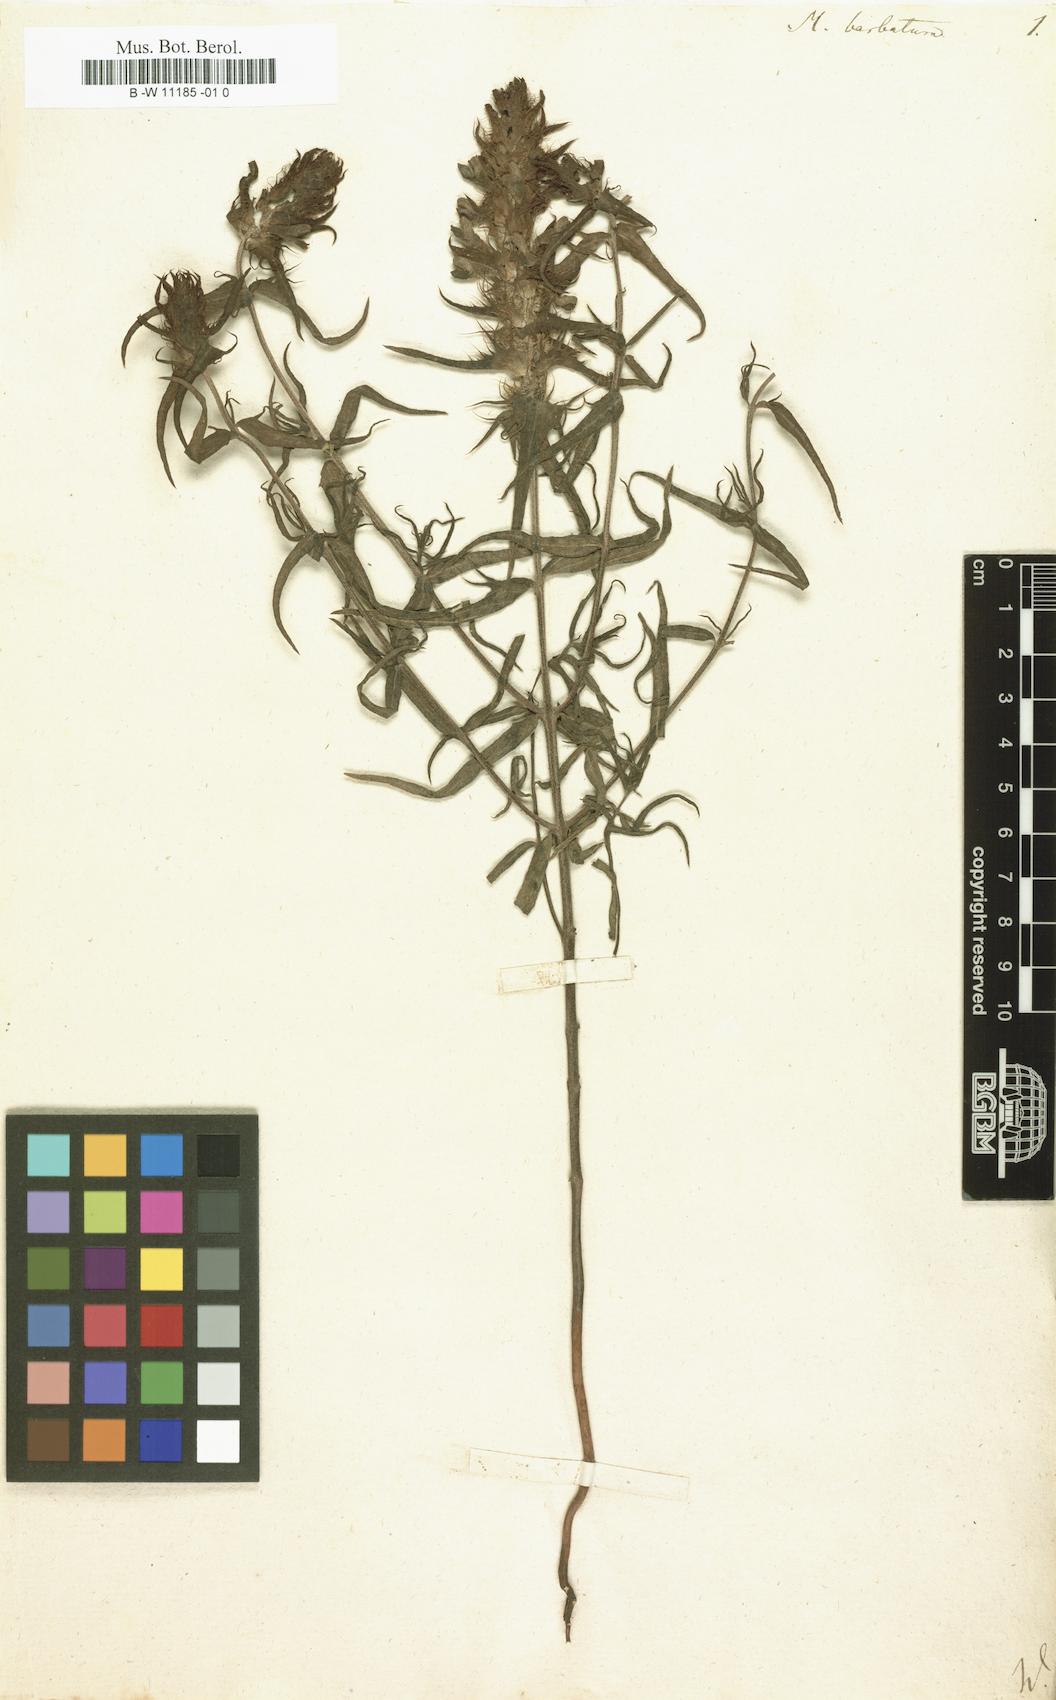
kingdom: Plantae
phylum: Tracheophyta
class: Magnoliopsida
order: Lamiales
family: Orobanchaceae
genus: Melampyrum
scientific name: Melampyrum barbatum
